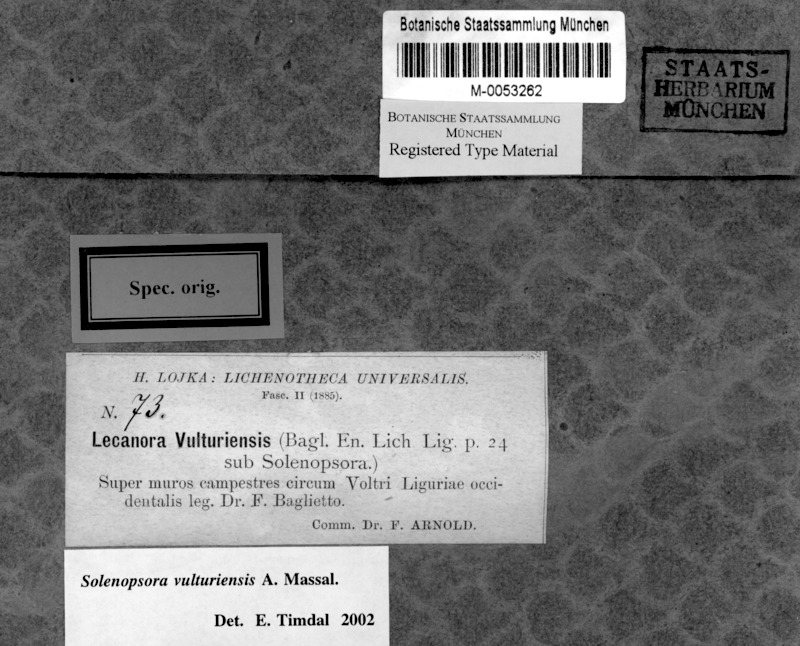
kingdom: Fungi
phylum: Ascomycota
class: Lecanoromycetes
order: Lecanorales
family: Catillariaceae
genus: Solenopsora
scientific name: Solenopsora vulturiensis
